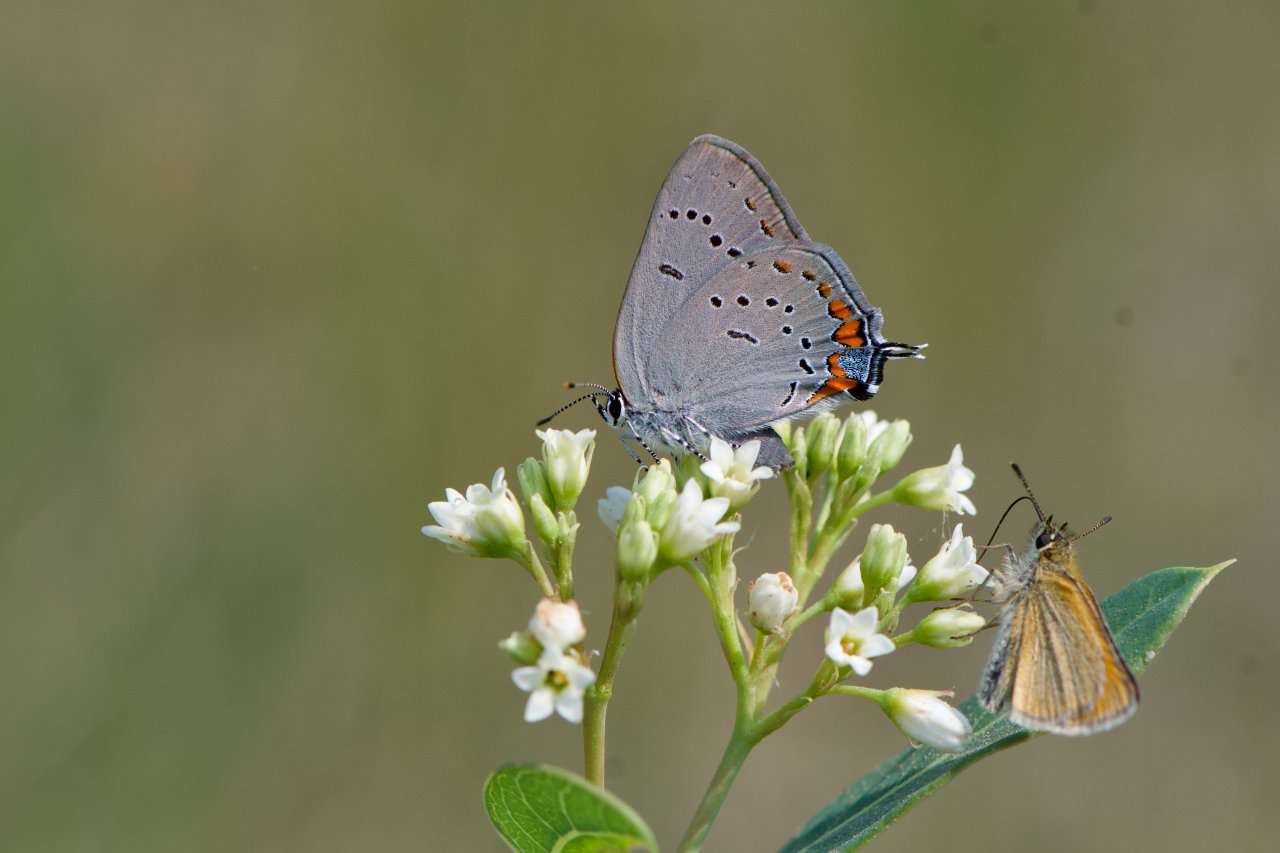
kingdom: Animalia
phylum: Arthropoda
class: Insecta
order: Lepidoptera
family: Lycaenidae
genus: Strymon
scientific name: Strymon acadica
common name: Acadian Hairstreak
